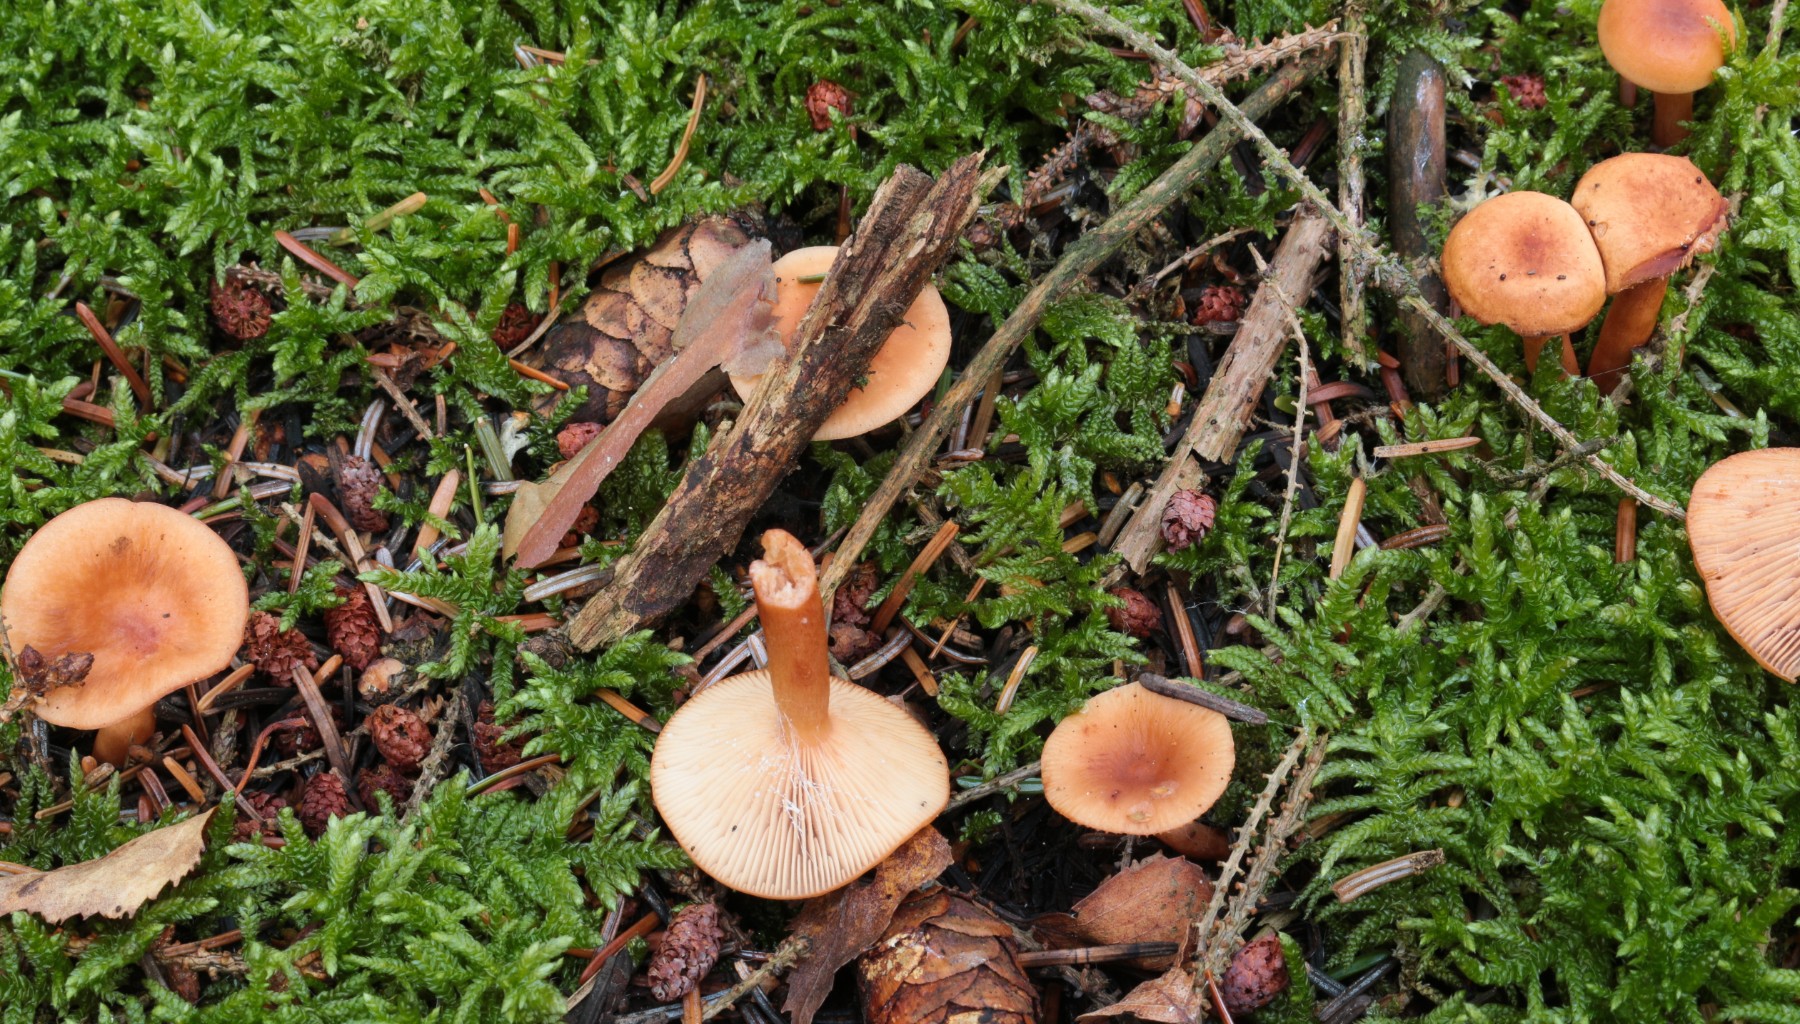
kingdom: Fungi
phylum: Basidiomycota
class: Agaricomycetes
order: Russulales
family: Russulaceae
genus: Lactarius
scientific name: Lactarius tabidus
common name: rynket mælkehat
